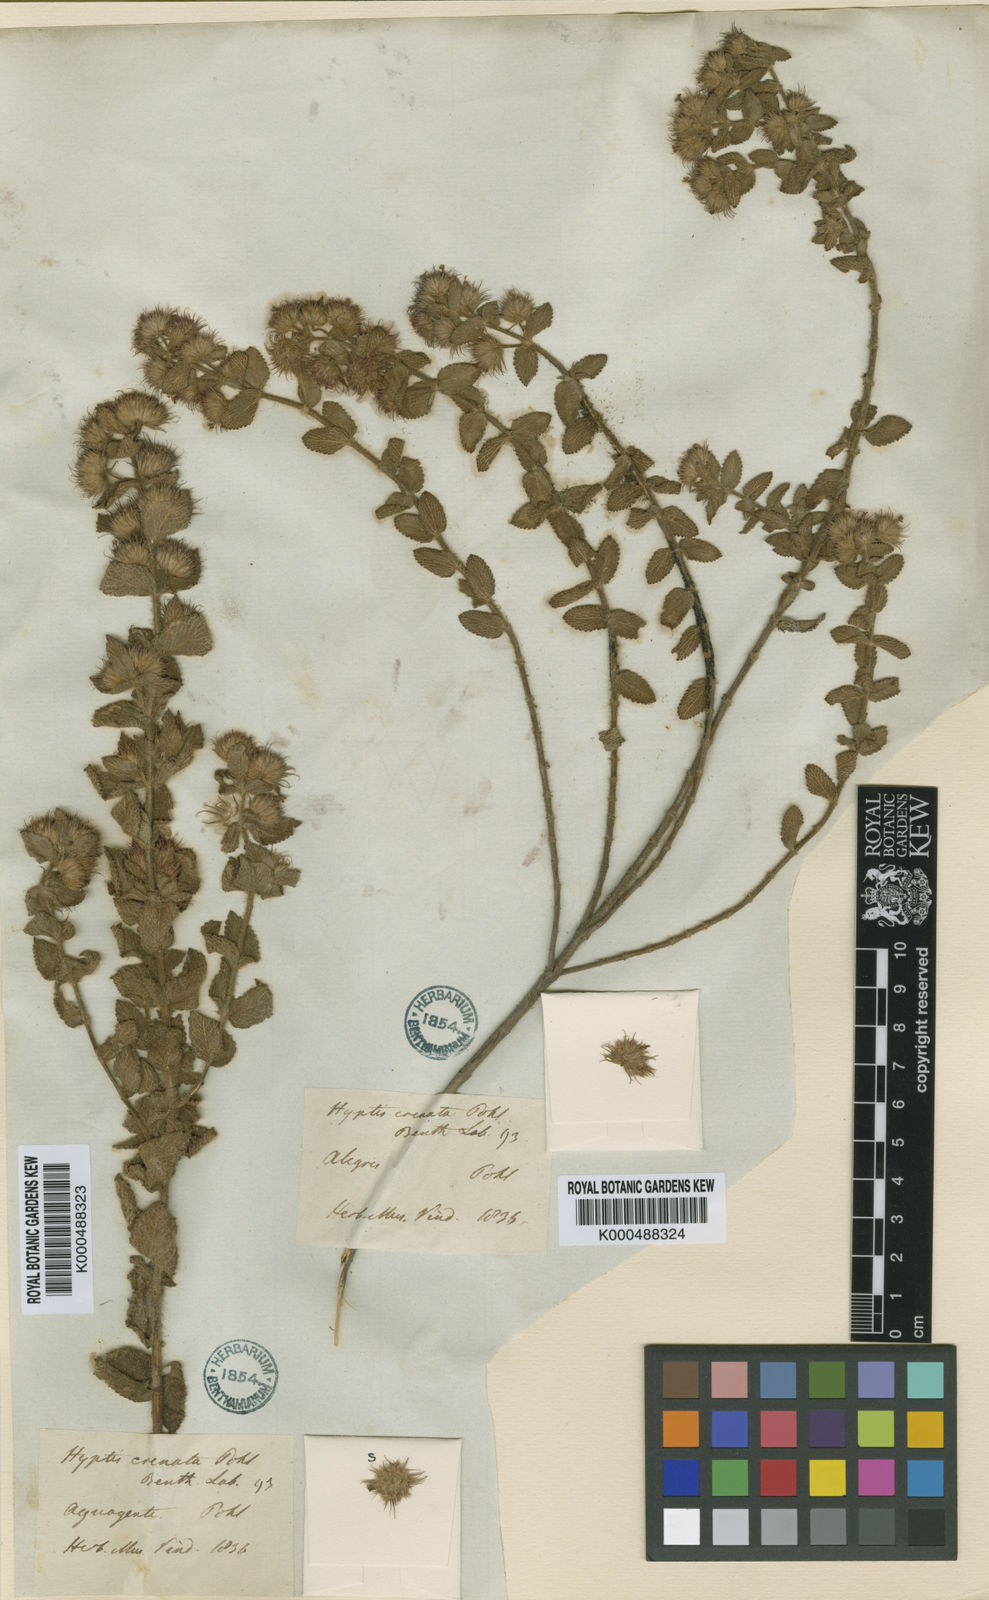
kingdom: Plantae
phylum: Tracheophyta
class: Magnoliopsida
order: Lamiales
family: Lamiaceae
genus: Hyptis
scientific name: Hyptis crenata
